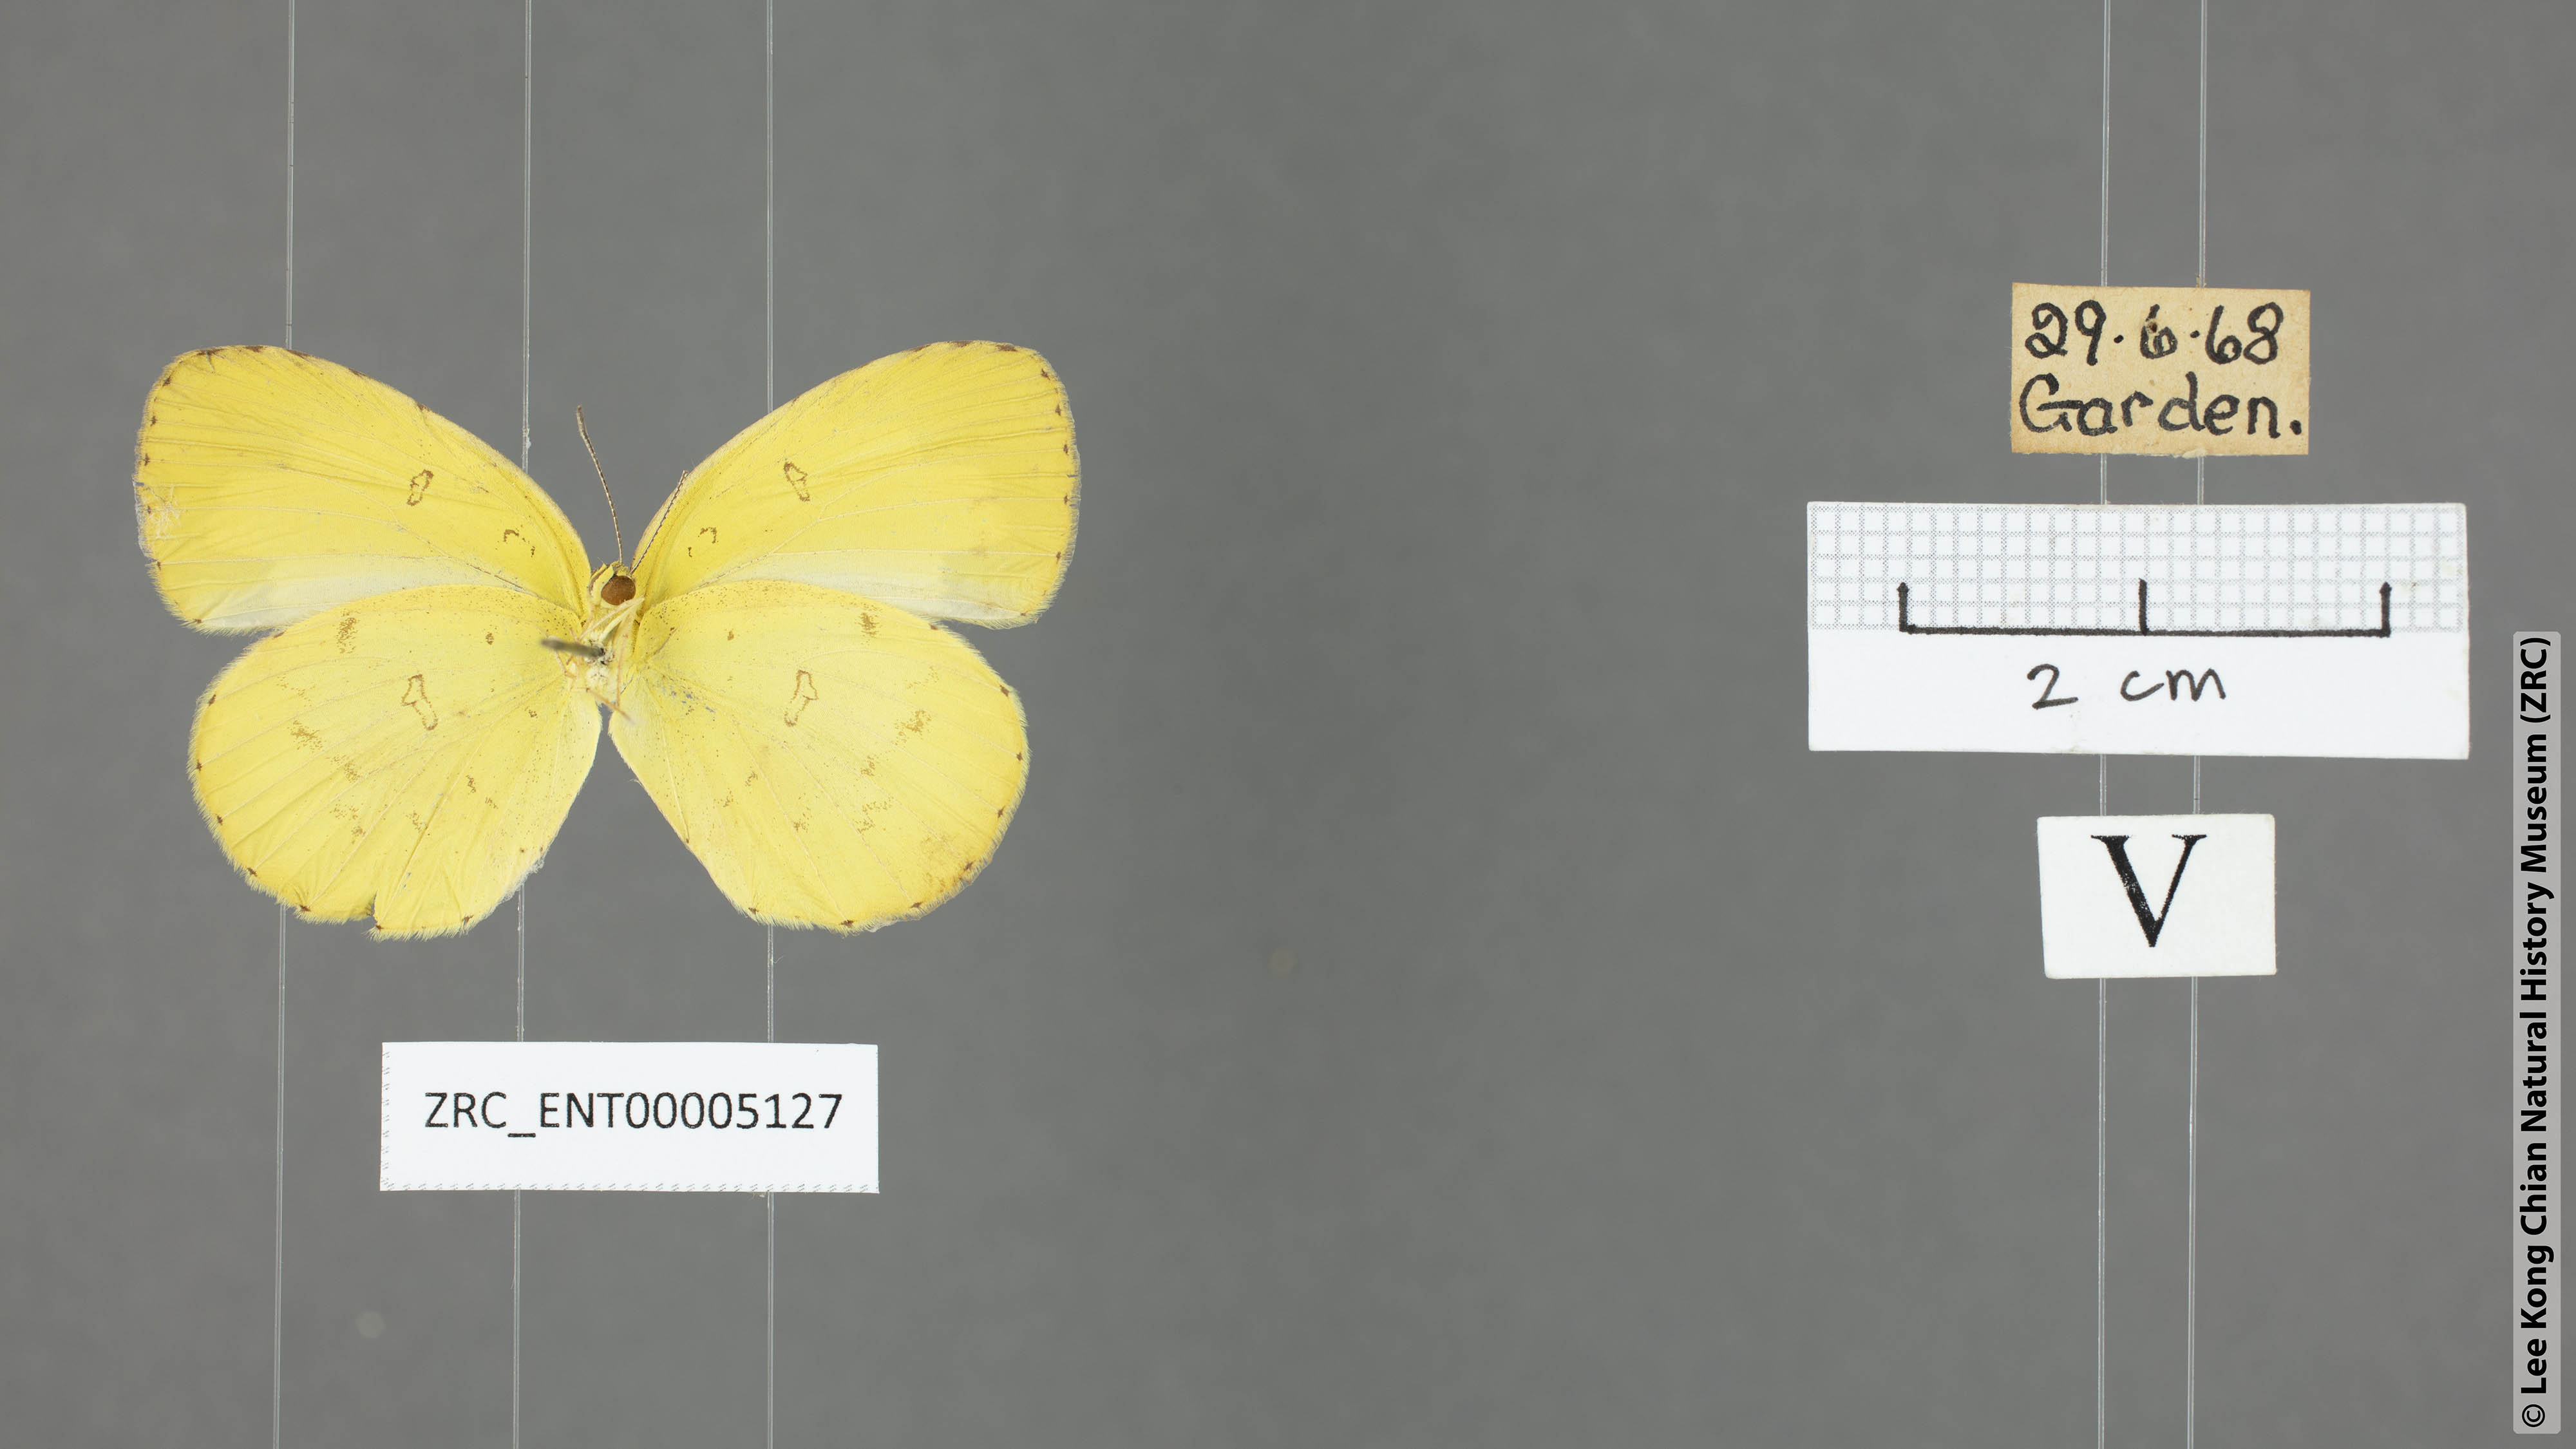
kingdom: Animalia
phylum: Arthropoda
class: Insecta
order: Lepidoptera
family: Pieridae
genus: Eurema
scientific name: Eurema hecabe
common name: Pale grass yellow
